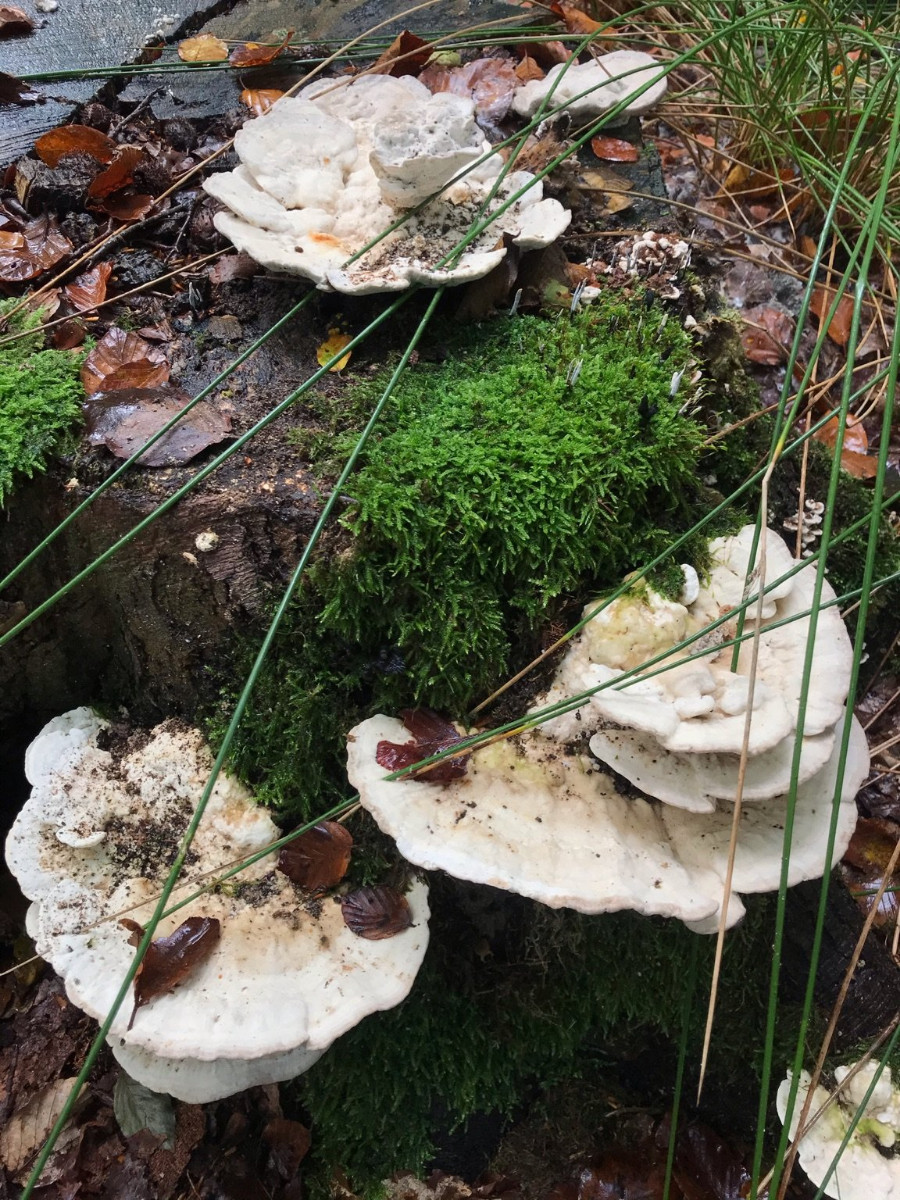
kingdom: Fungi
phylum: Basidiomycota
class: Agaricomycetes
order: Polyporales
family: Polyporaceae
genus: Trametes
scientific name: Trametes gibbosa
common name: puklet læderporesvamp
